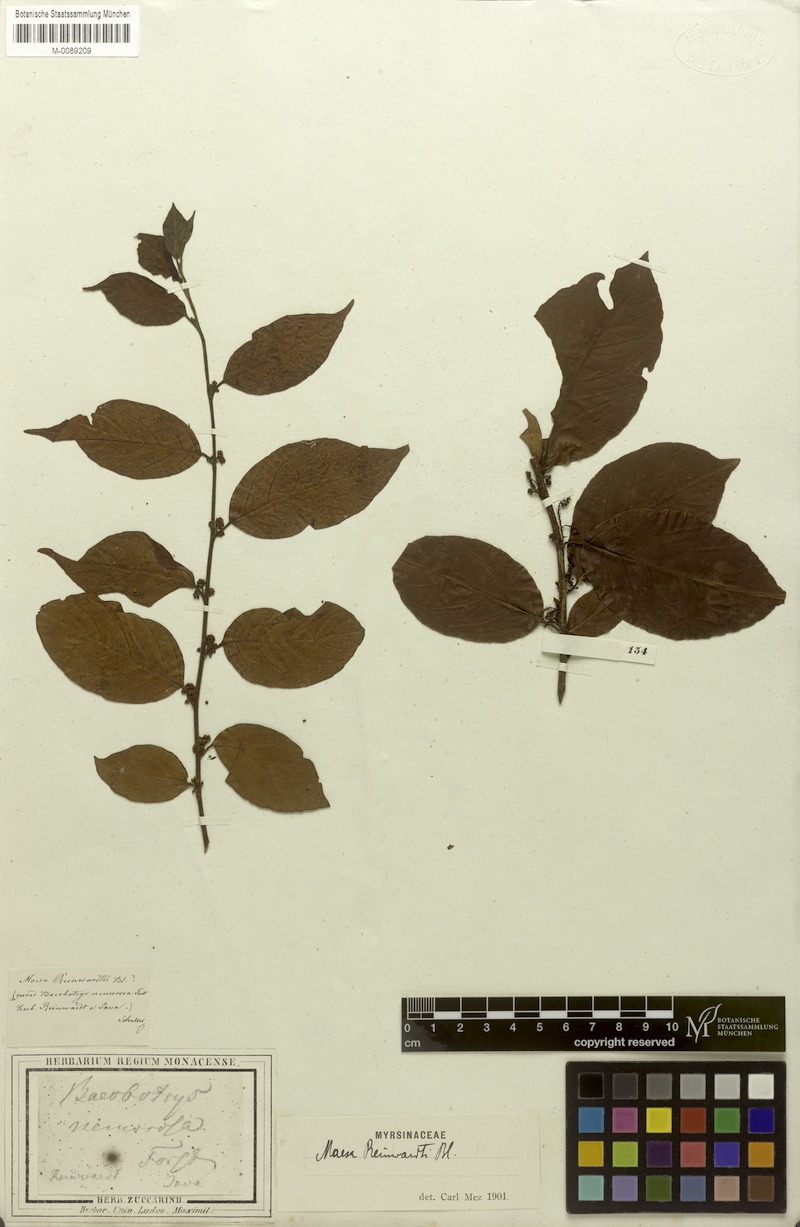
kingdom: Plantae
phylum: Tracheophyta
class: Magnoliopsida
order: Ericales
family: Primulaceae
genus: Maesa
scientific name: Maesa reinwardtii
